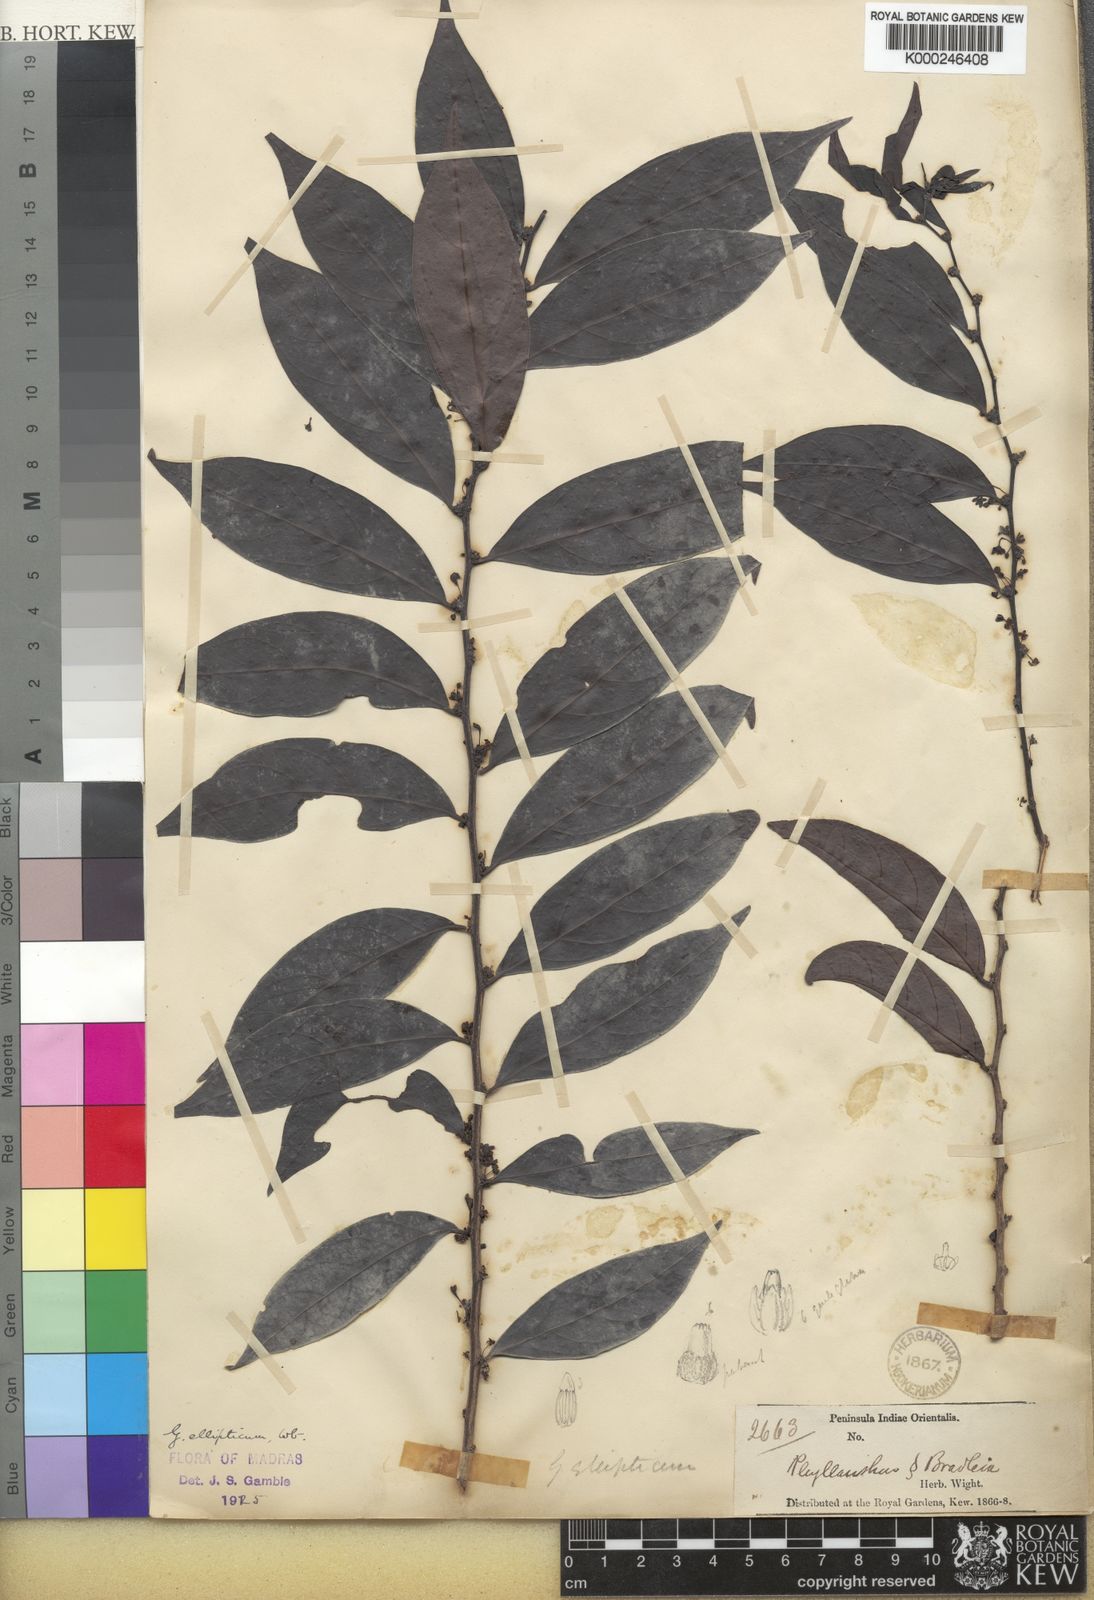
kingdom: Plantae
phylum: Tracheophyta
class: Magnoliopsida
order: Malpighiales
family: Phyllanthaceae
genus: Glochidion
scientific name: Glochidion ellipticum
